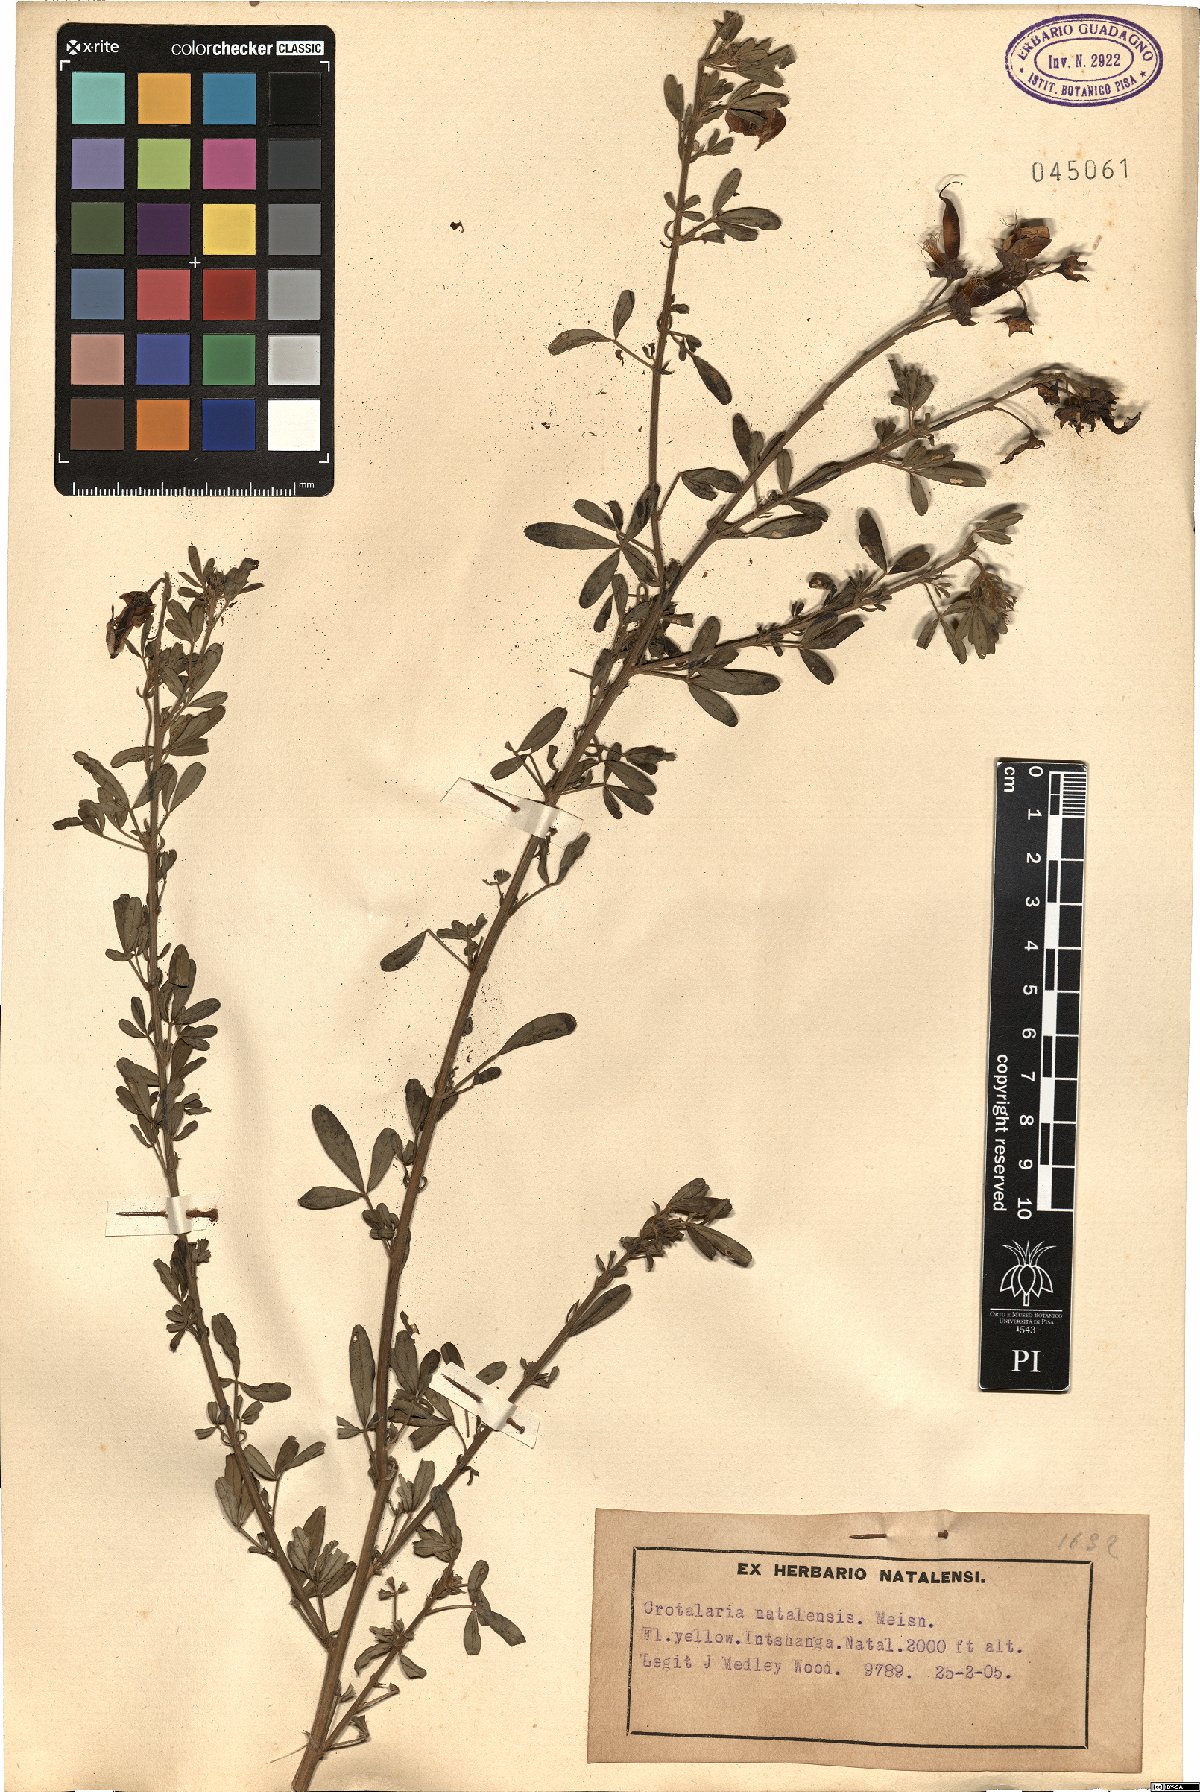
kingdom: Plantae
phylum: Tracheophyta
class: Magnoliopsida
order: Fabales
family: Fabaceae
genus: Crotalaria
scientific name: Crotalaria
